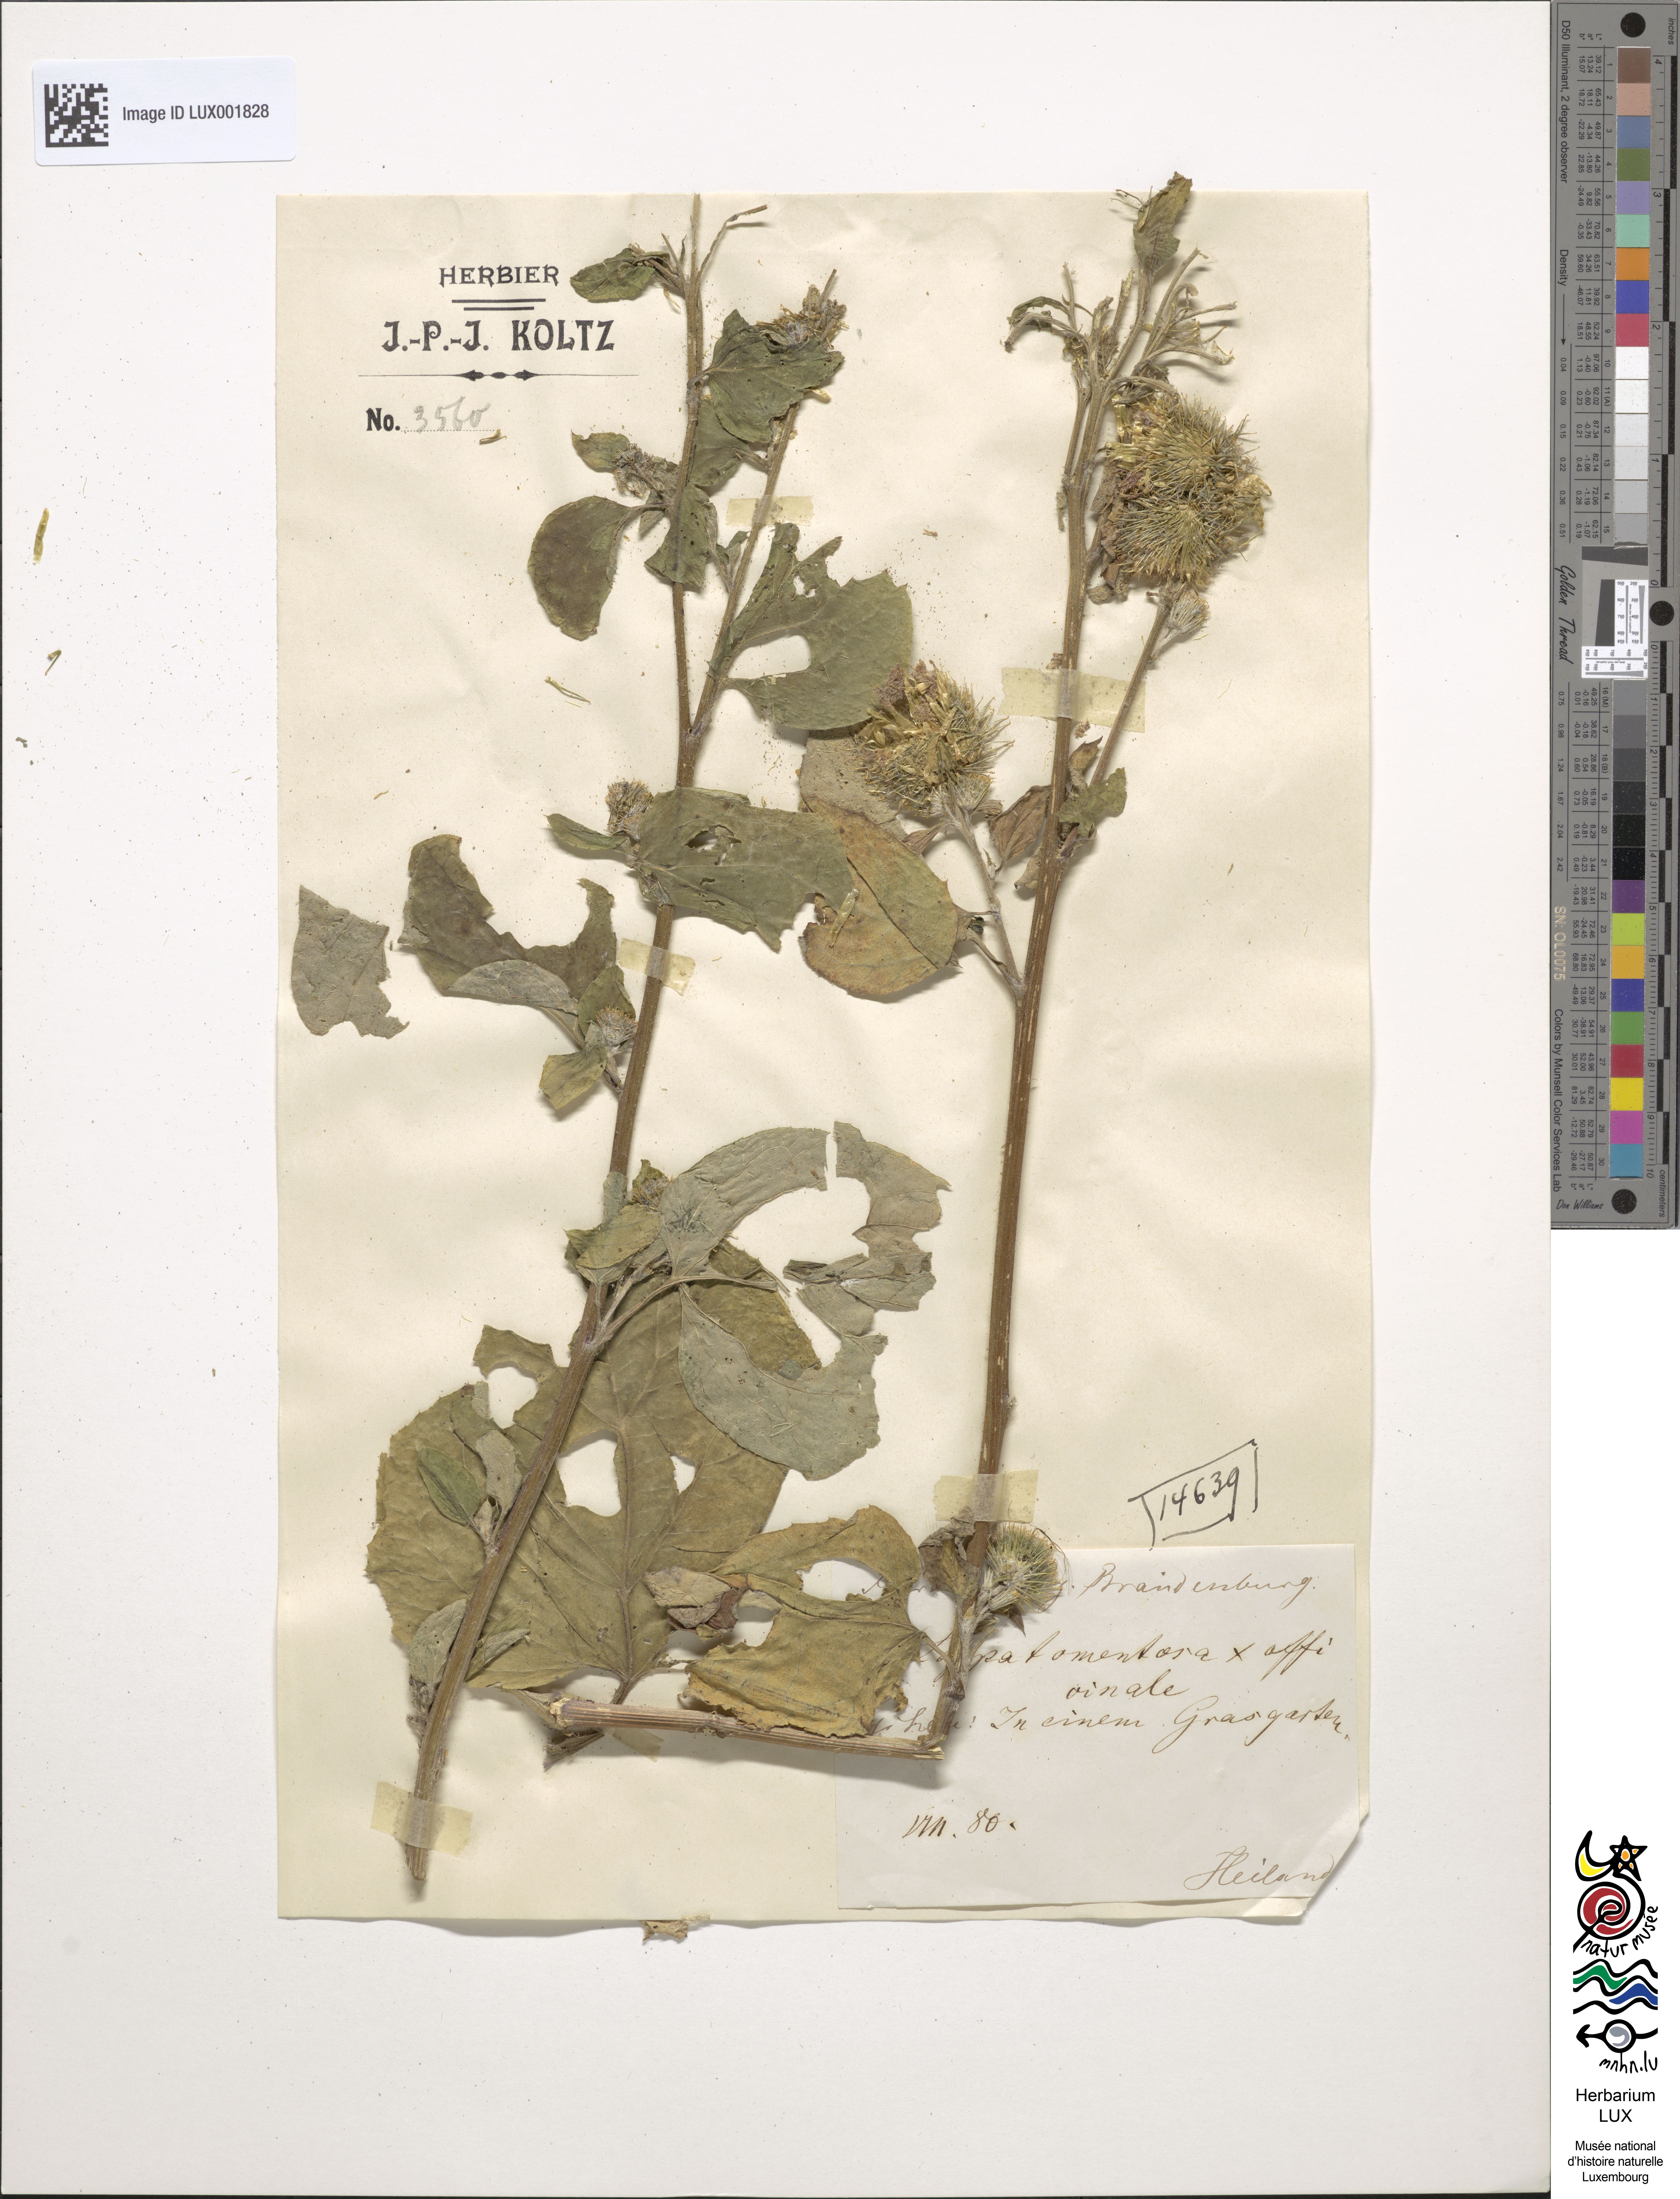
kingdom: Plantae
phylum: Tracheophyta
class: Magnoliopsida
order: Asterales
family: Asteraceae
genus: Arctium
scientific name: Arctium ambiguum
